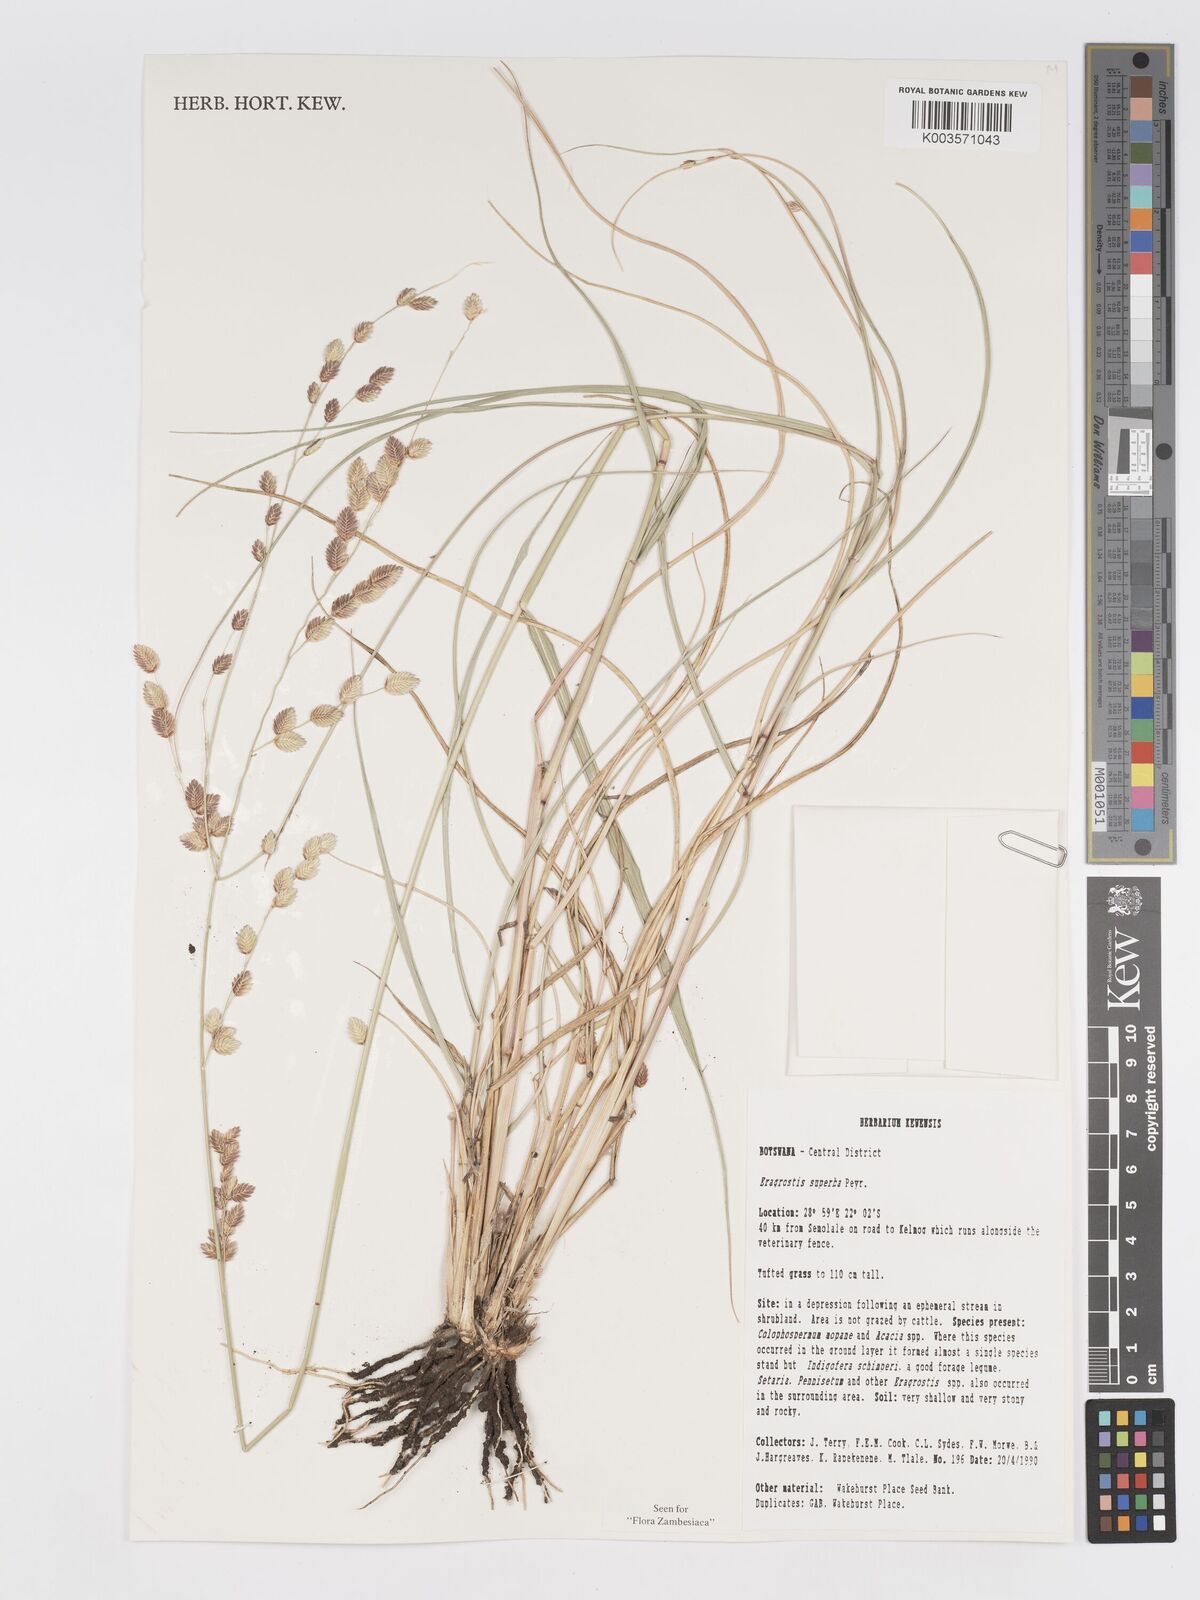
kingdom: Plantae
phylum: Tracheophyta
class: Liliopsida
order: Poales
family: Poaceae
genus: Eragrostis
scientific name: Eragrostis superba
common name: Wilman lovegrass
